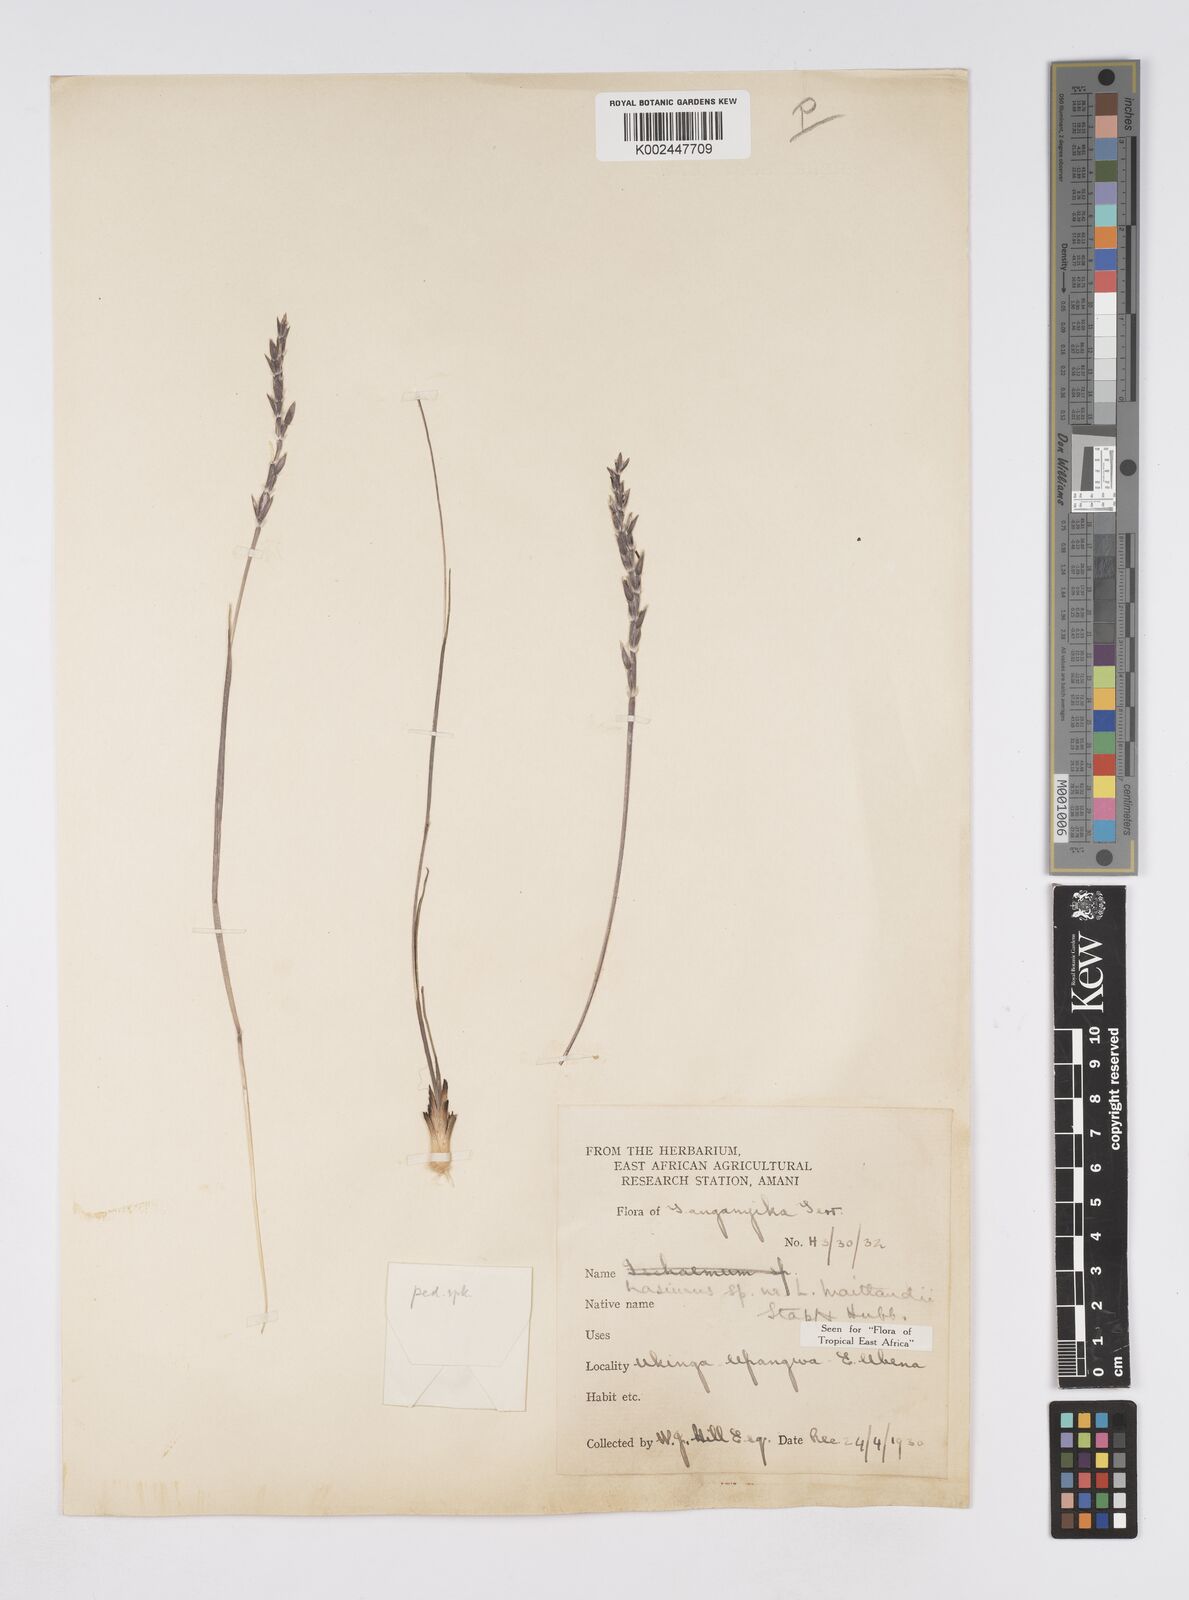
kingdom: Plantae
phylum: Tracheophyta
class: Liliopsida
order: Poales
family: Poaceae
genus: Loxodera
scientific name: Loxodera caespitosa
